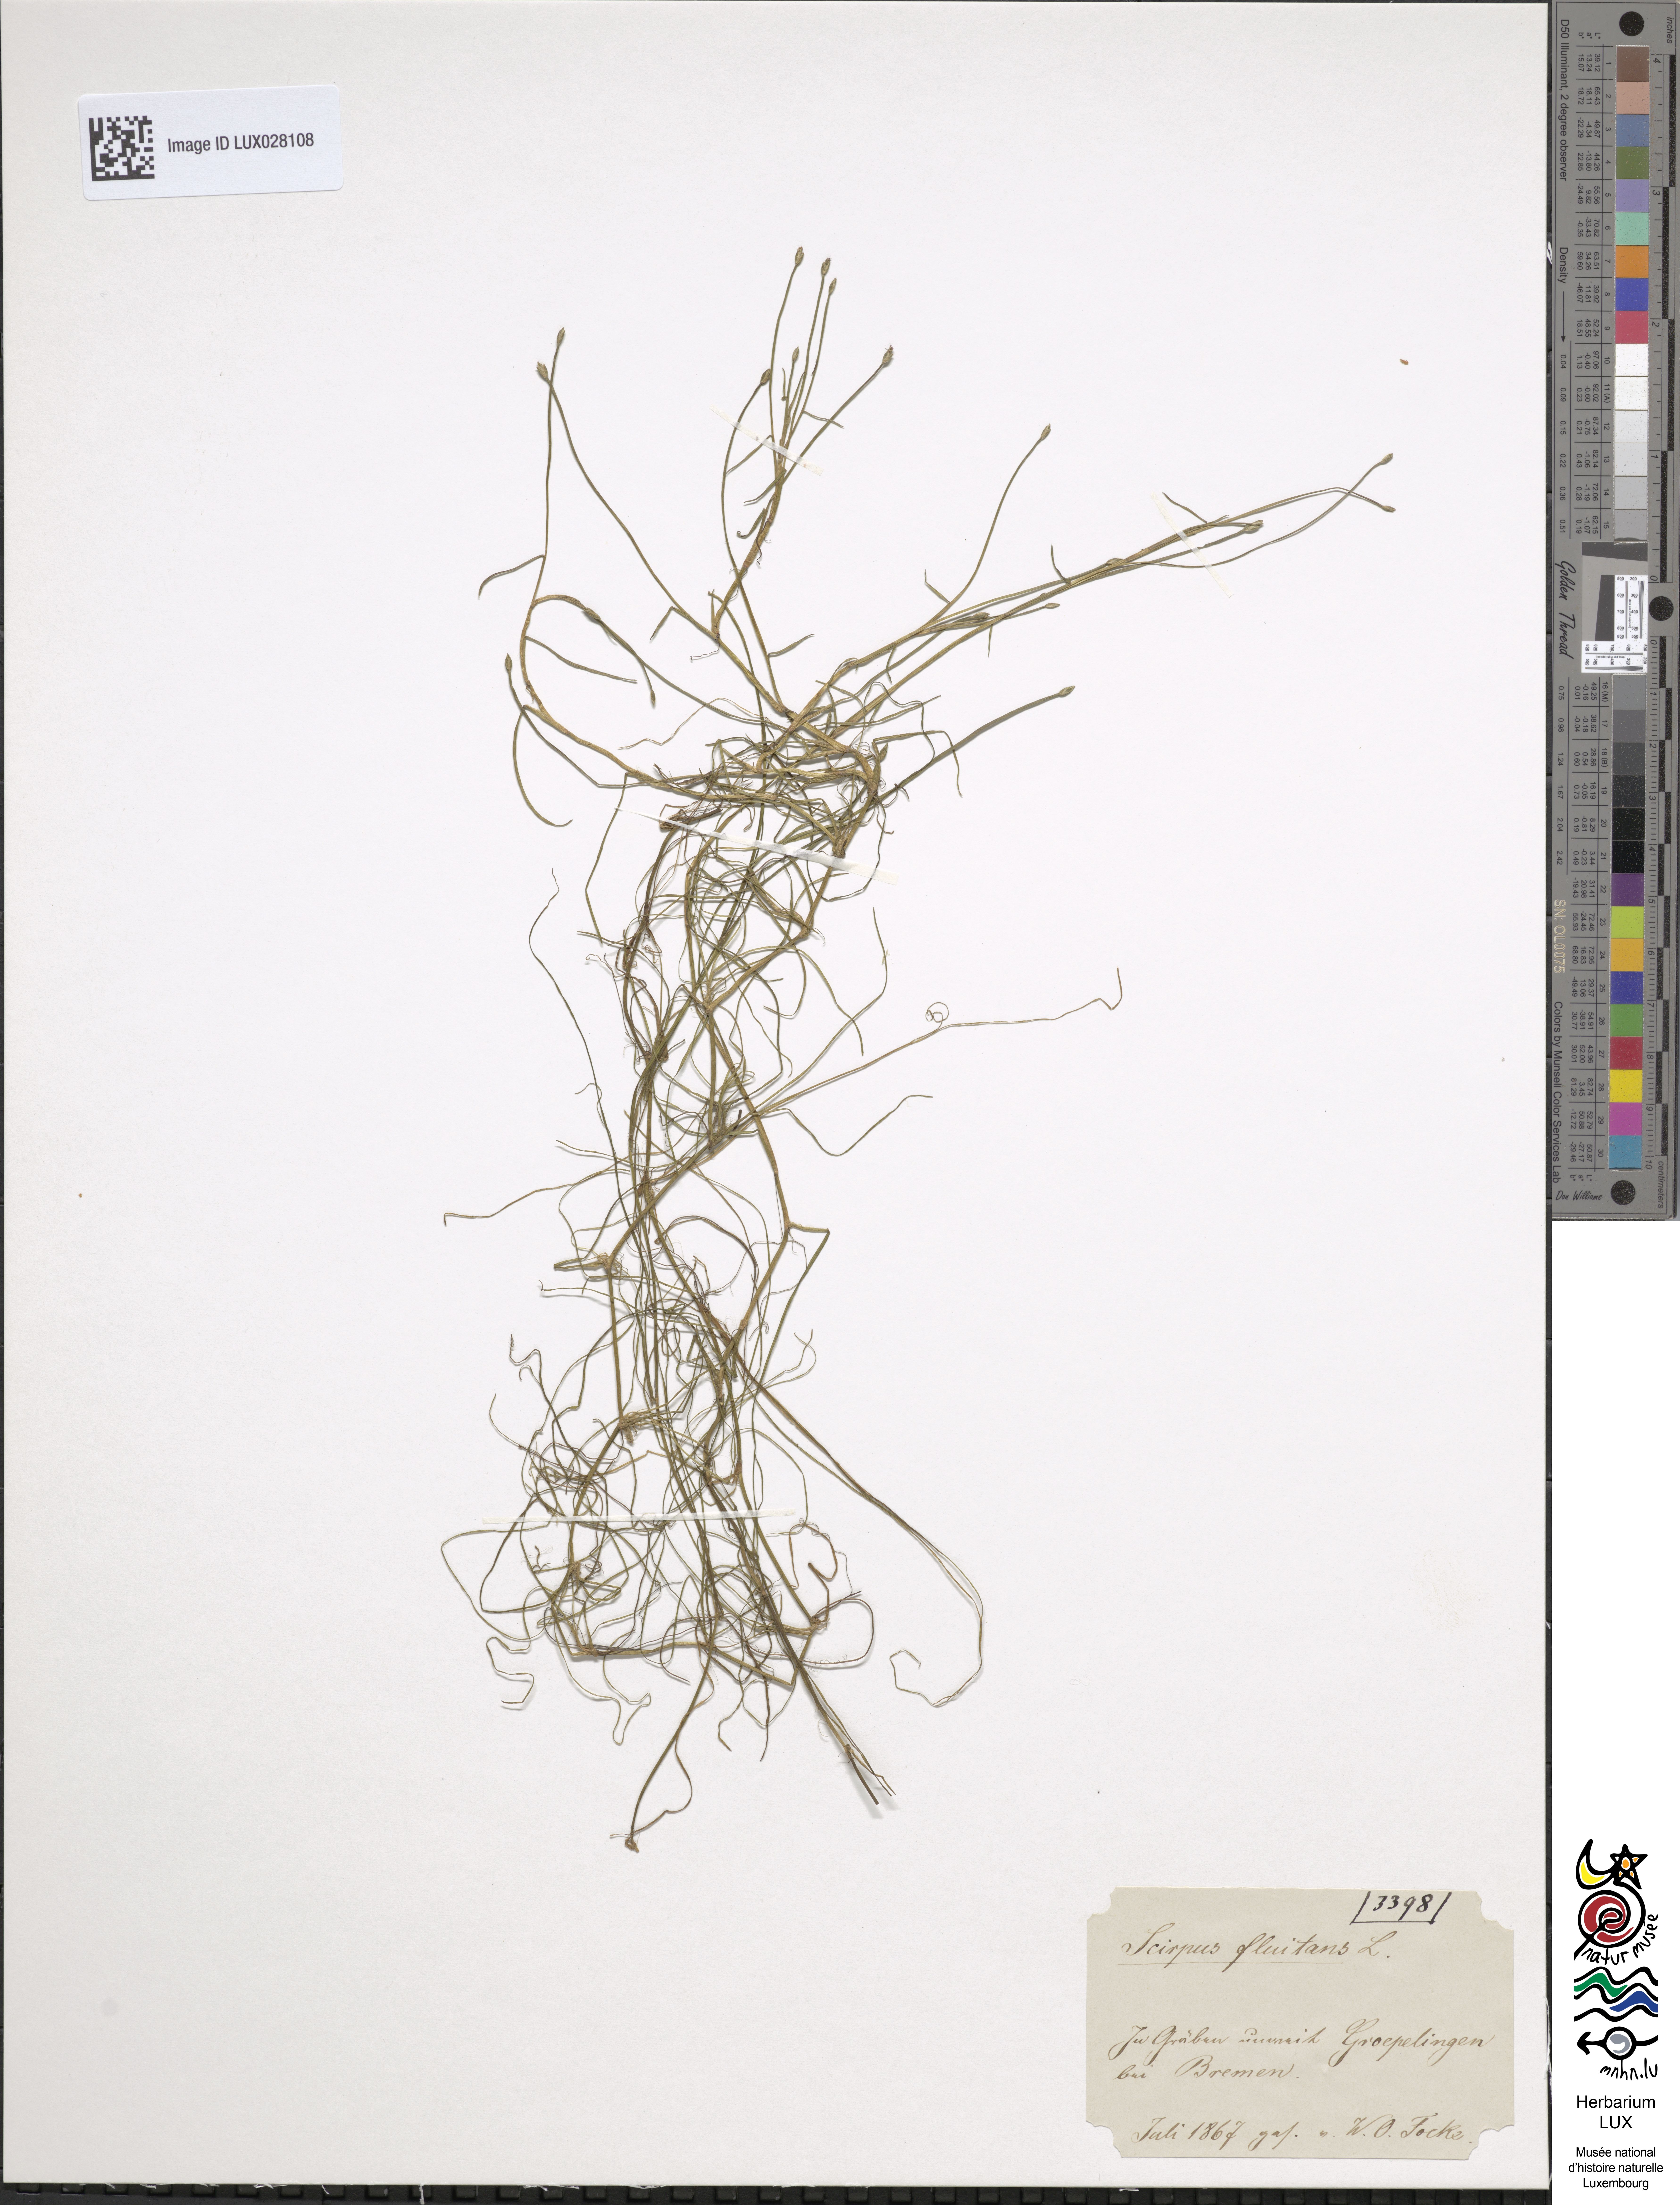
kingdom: Plantae
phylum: Tracheophyta
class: Liliopsida
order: Poales
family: Cyperaceae
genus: Isolepis
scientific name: Isolepis fluitans
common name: Floating club-rush
